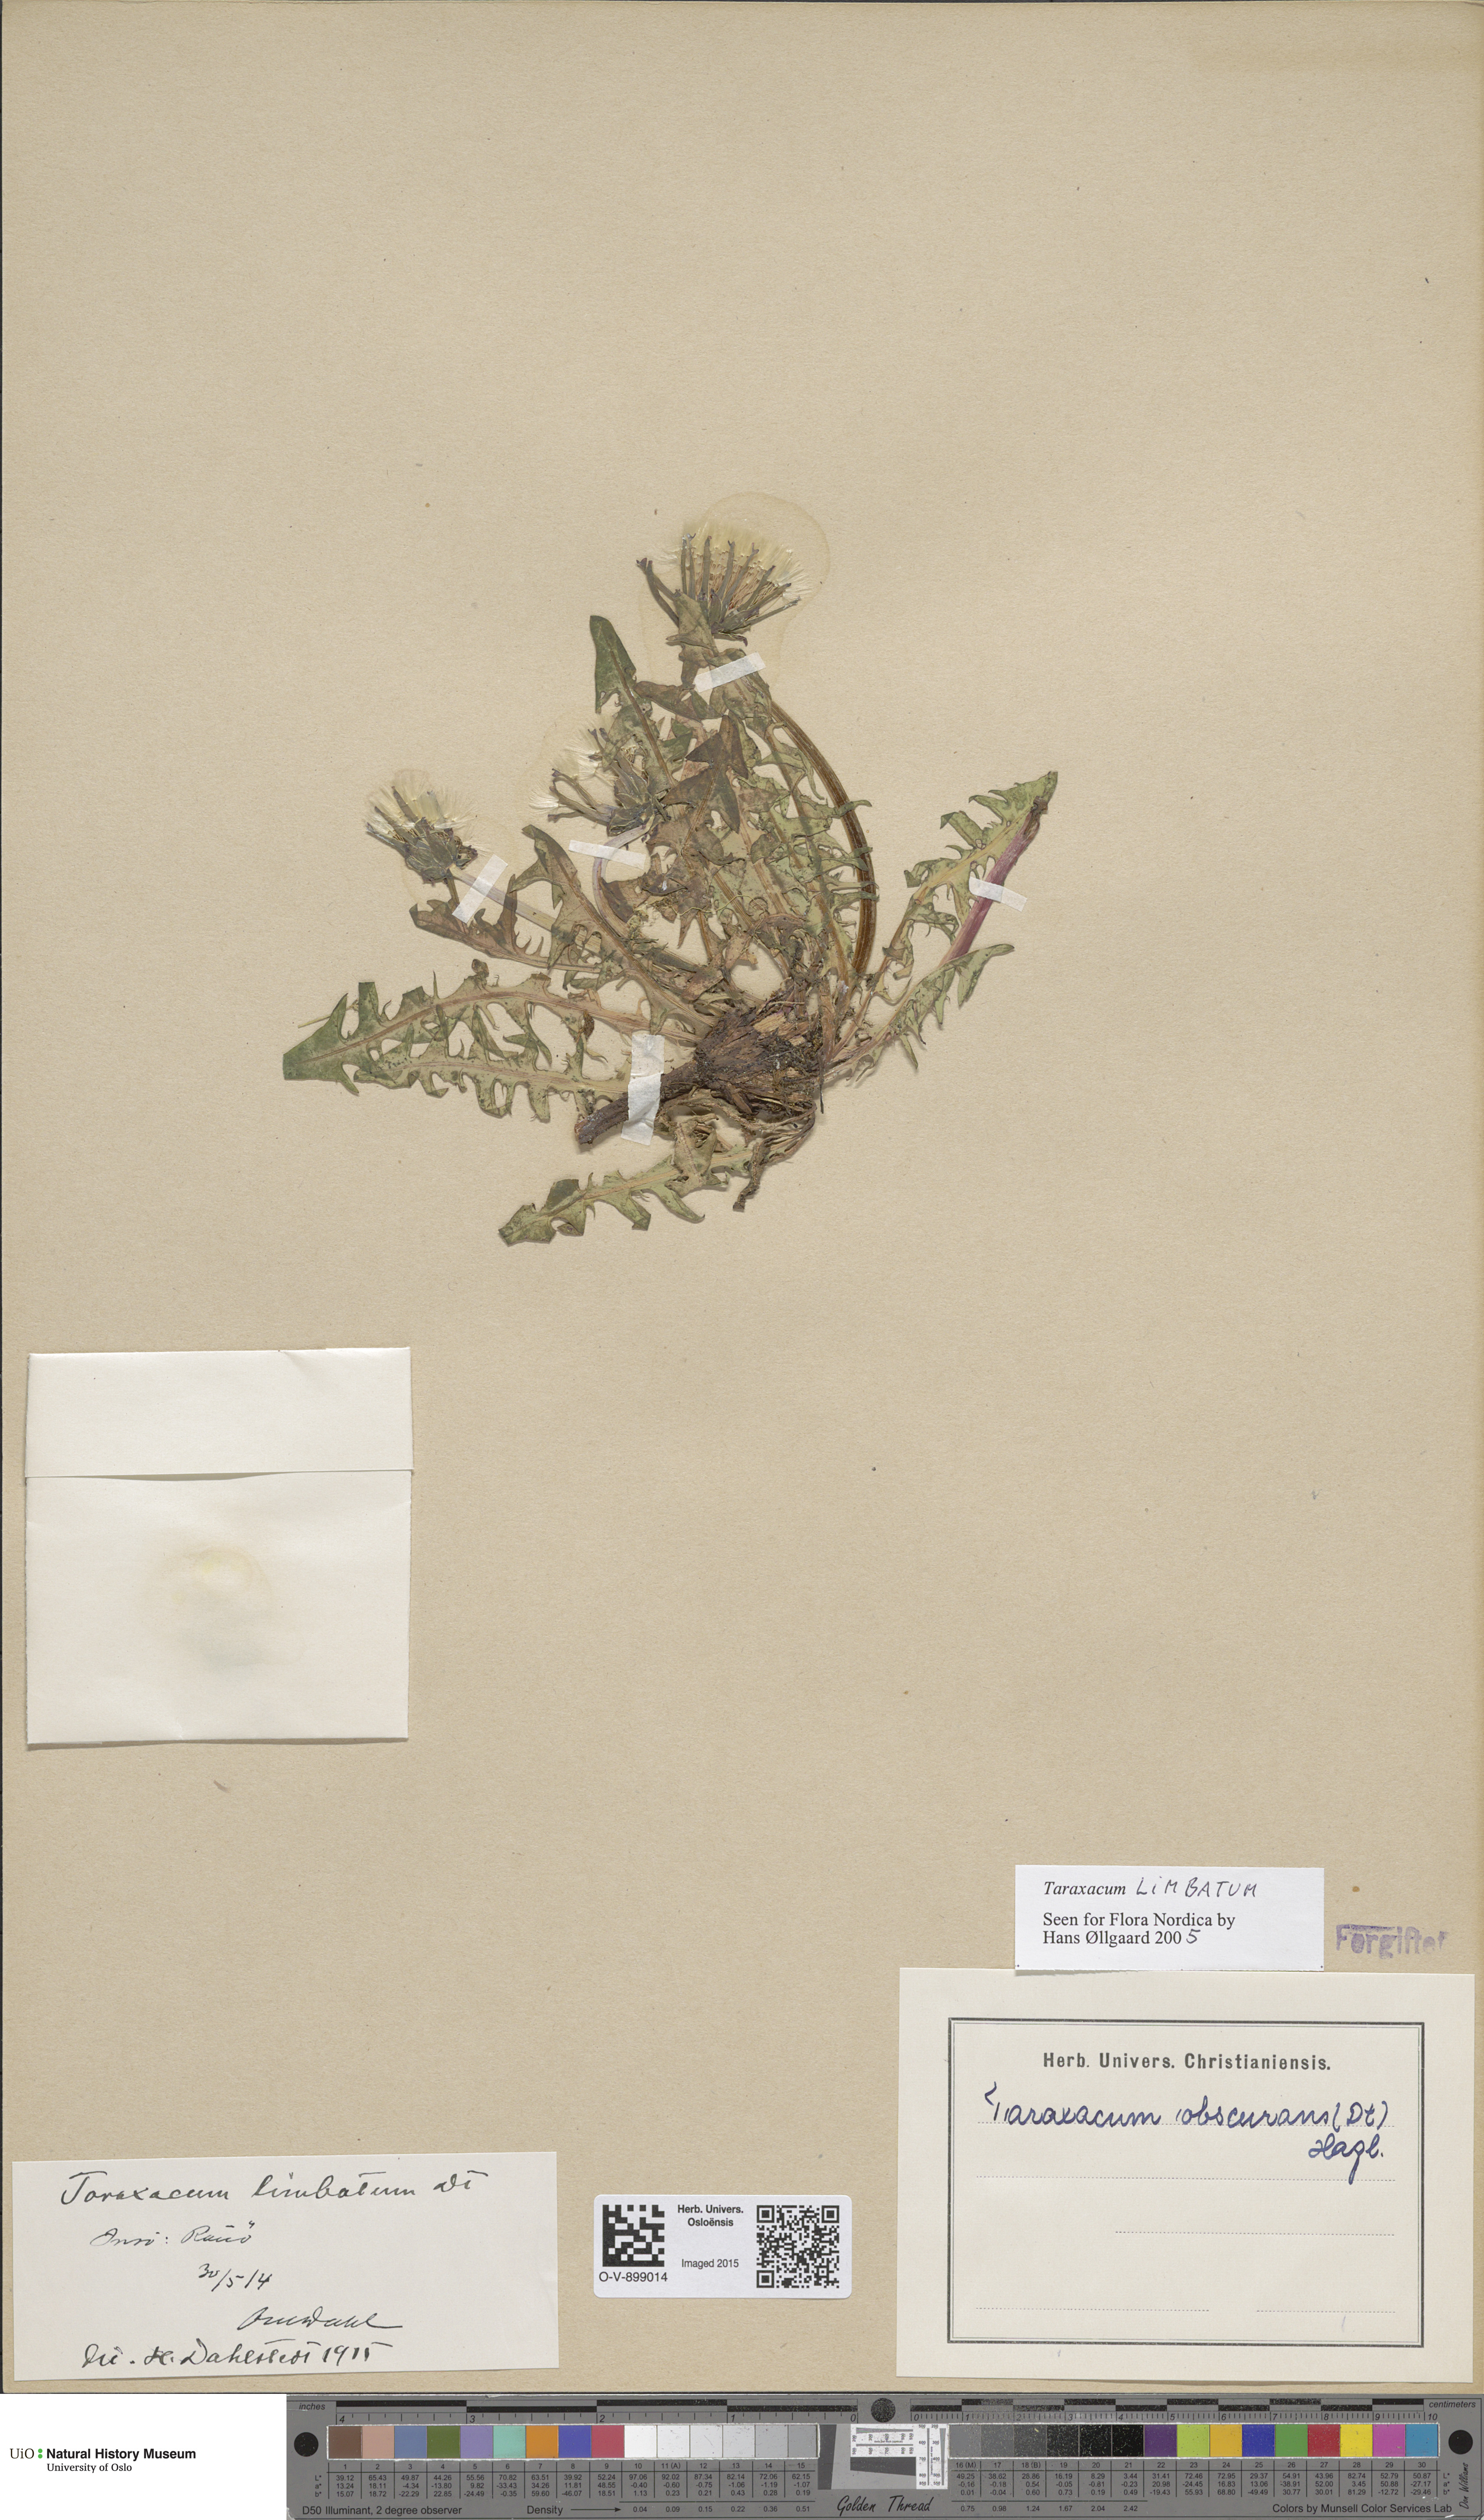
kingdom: Plantae
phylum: Tracheophyta
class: Magnoliopsida
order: Asterales
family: Asteraceae
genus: Taraxacum
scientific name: Taraxacum limbatum
